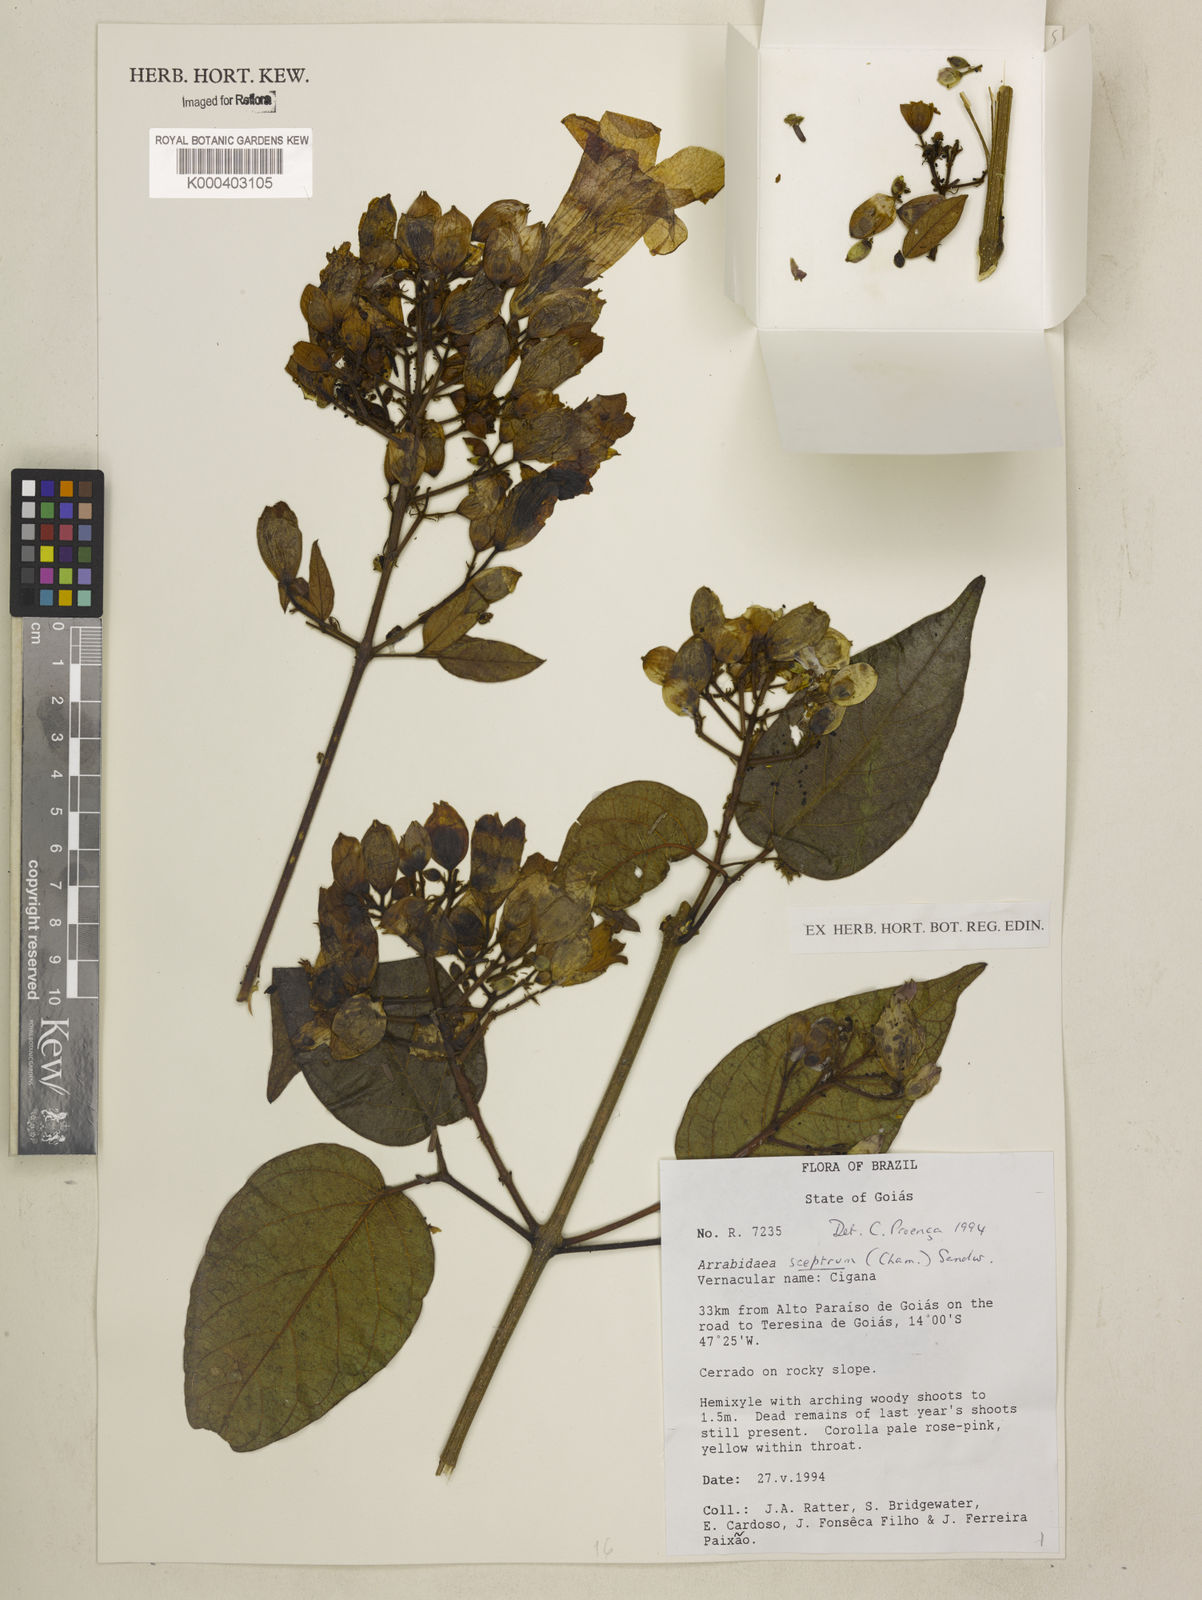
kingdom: Plantae
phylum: Tracheophyta
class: Magnoliopsida
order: Lamiales
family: Bignoniaceae
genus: Cuspidaria
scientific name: Cuspidaria sceptrum
